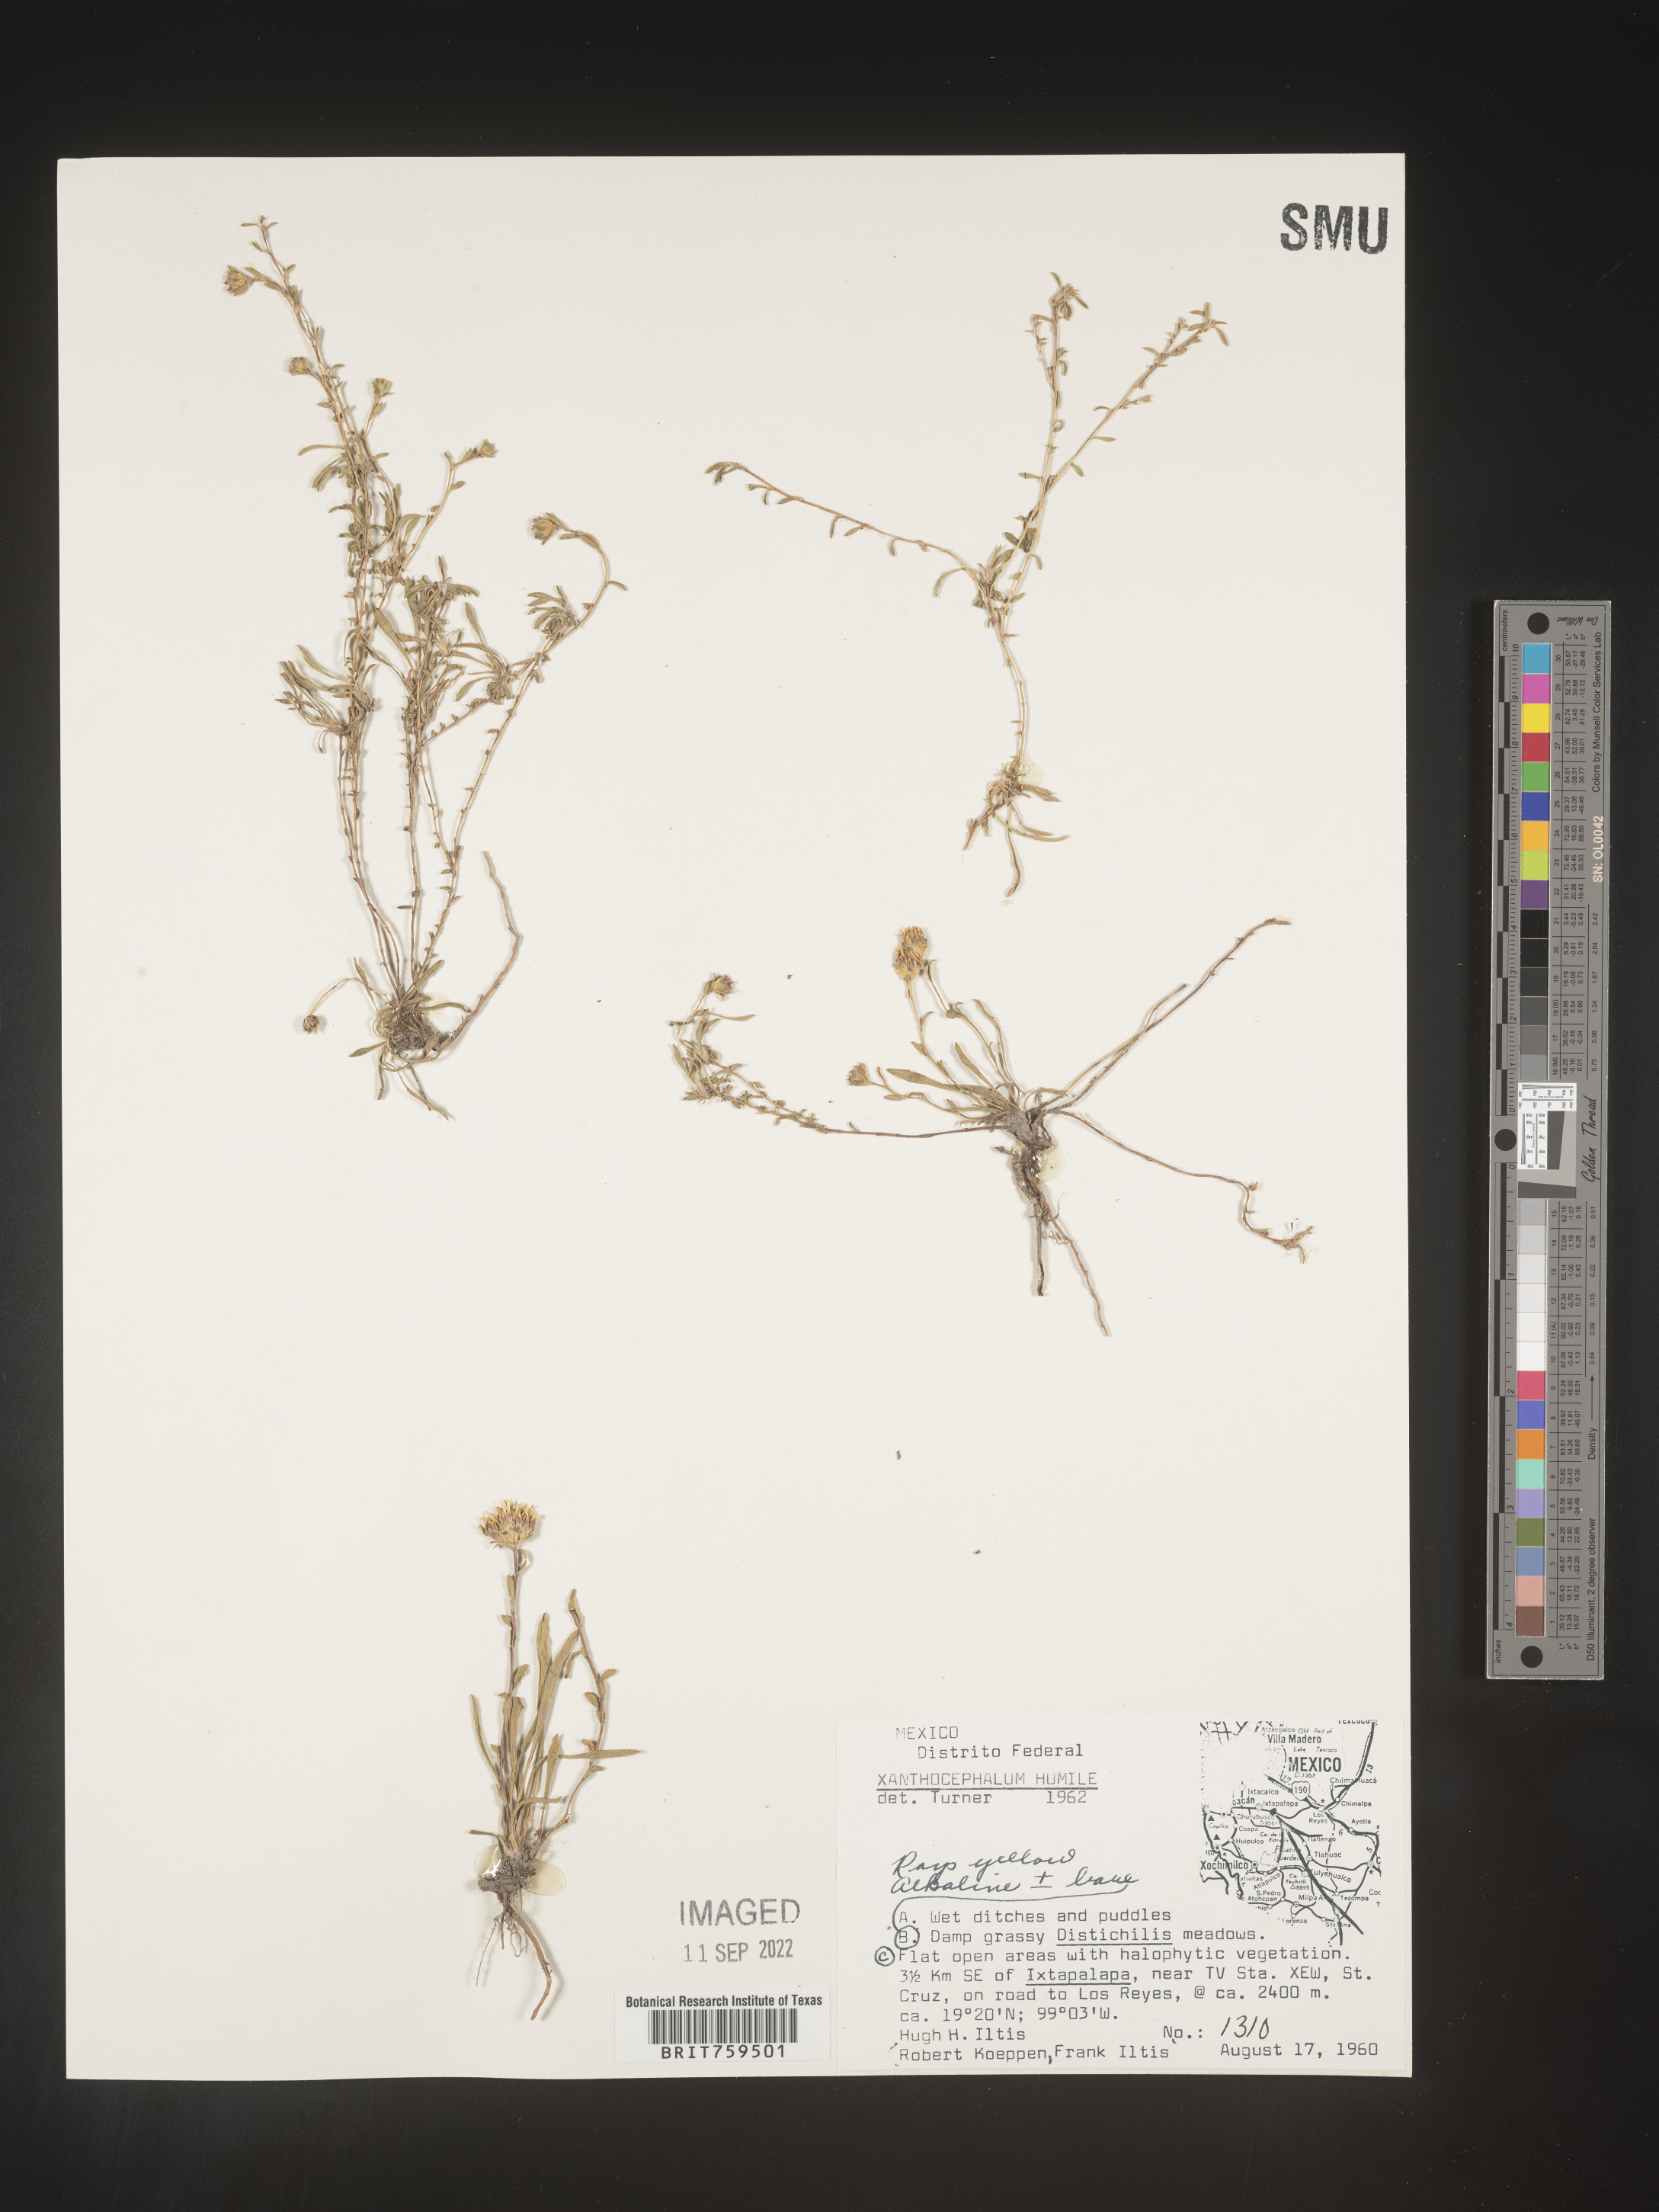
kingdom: Plantae
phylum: Tracheophyta
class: Magnoliopsida
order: Asterales
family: Asteraceae
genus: Xanthocephalum
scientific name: Xanthocephalum
